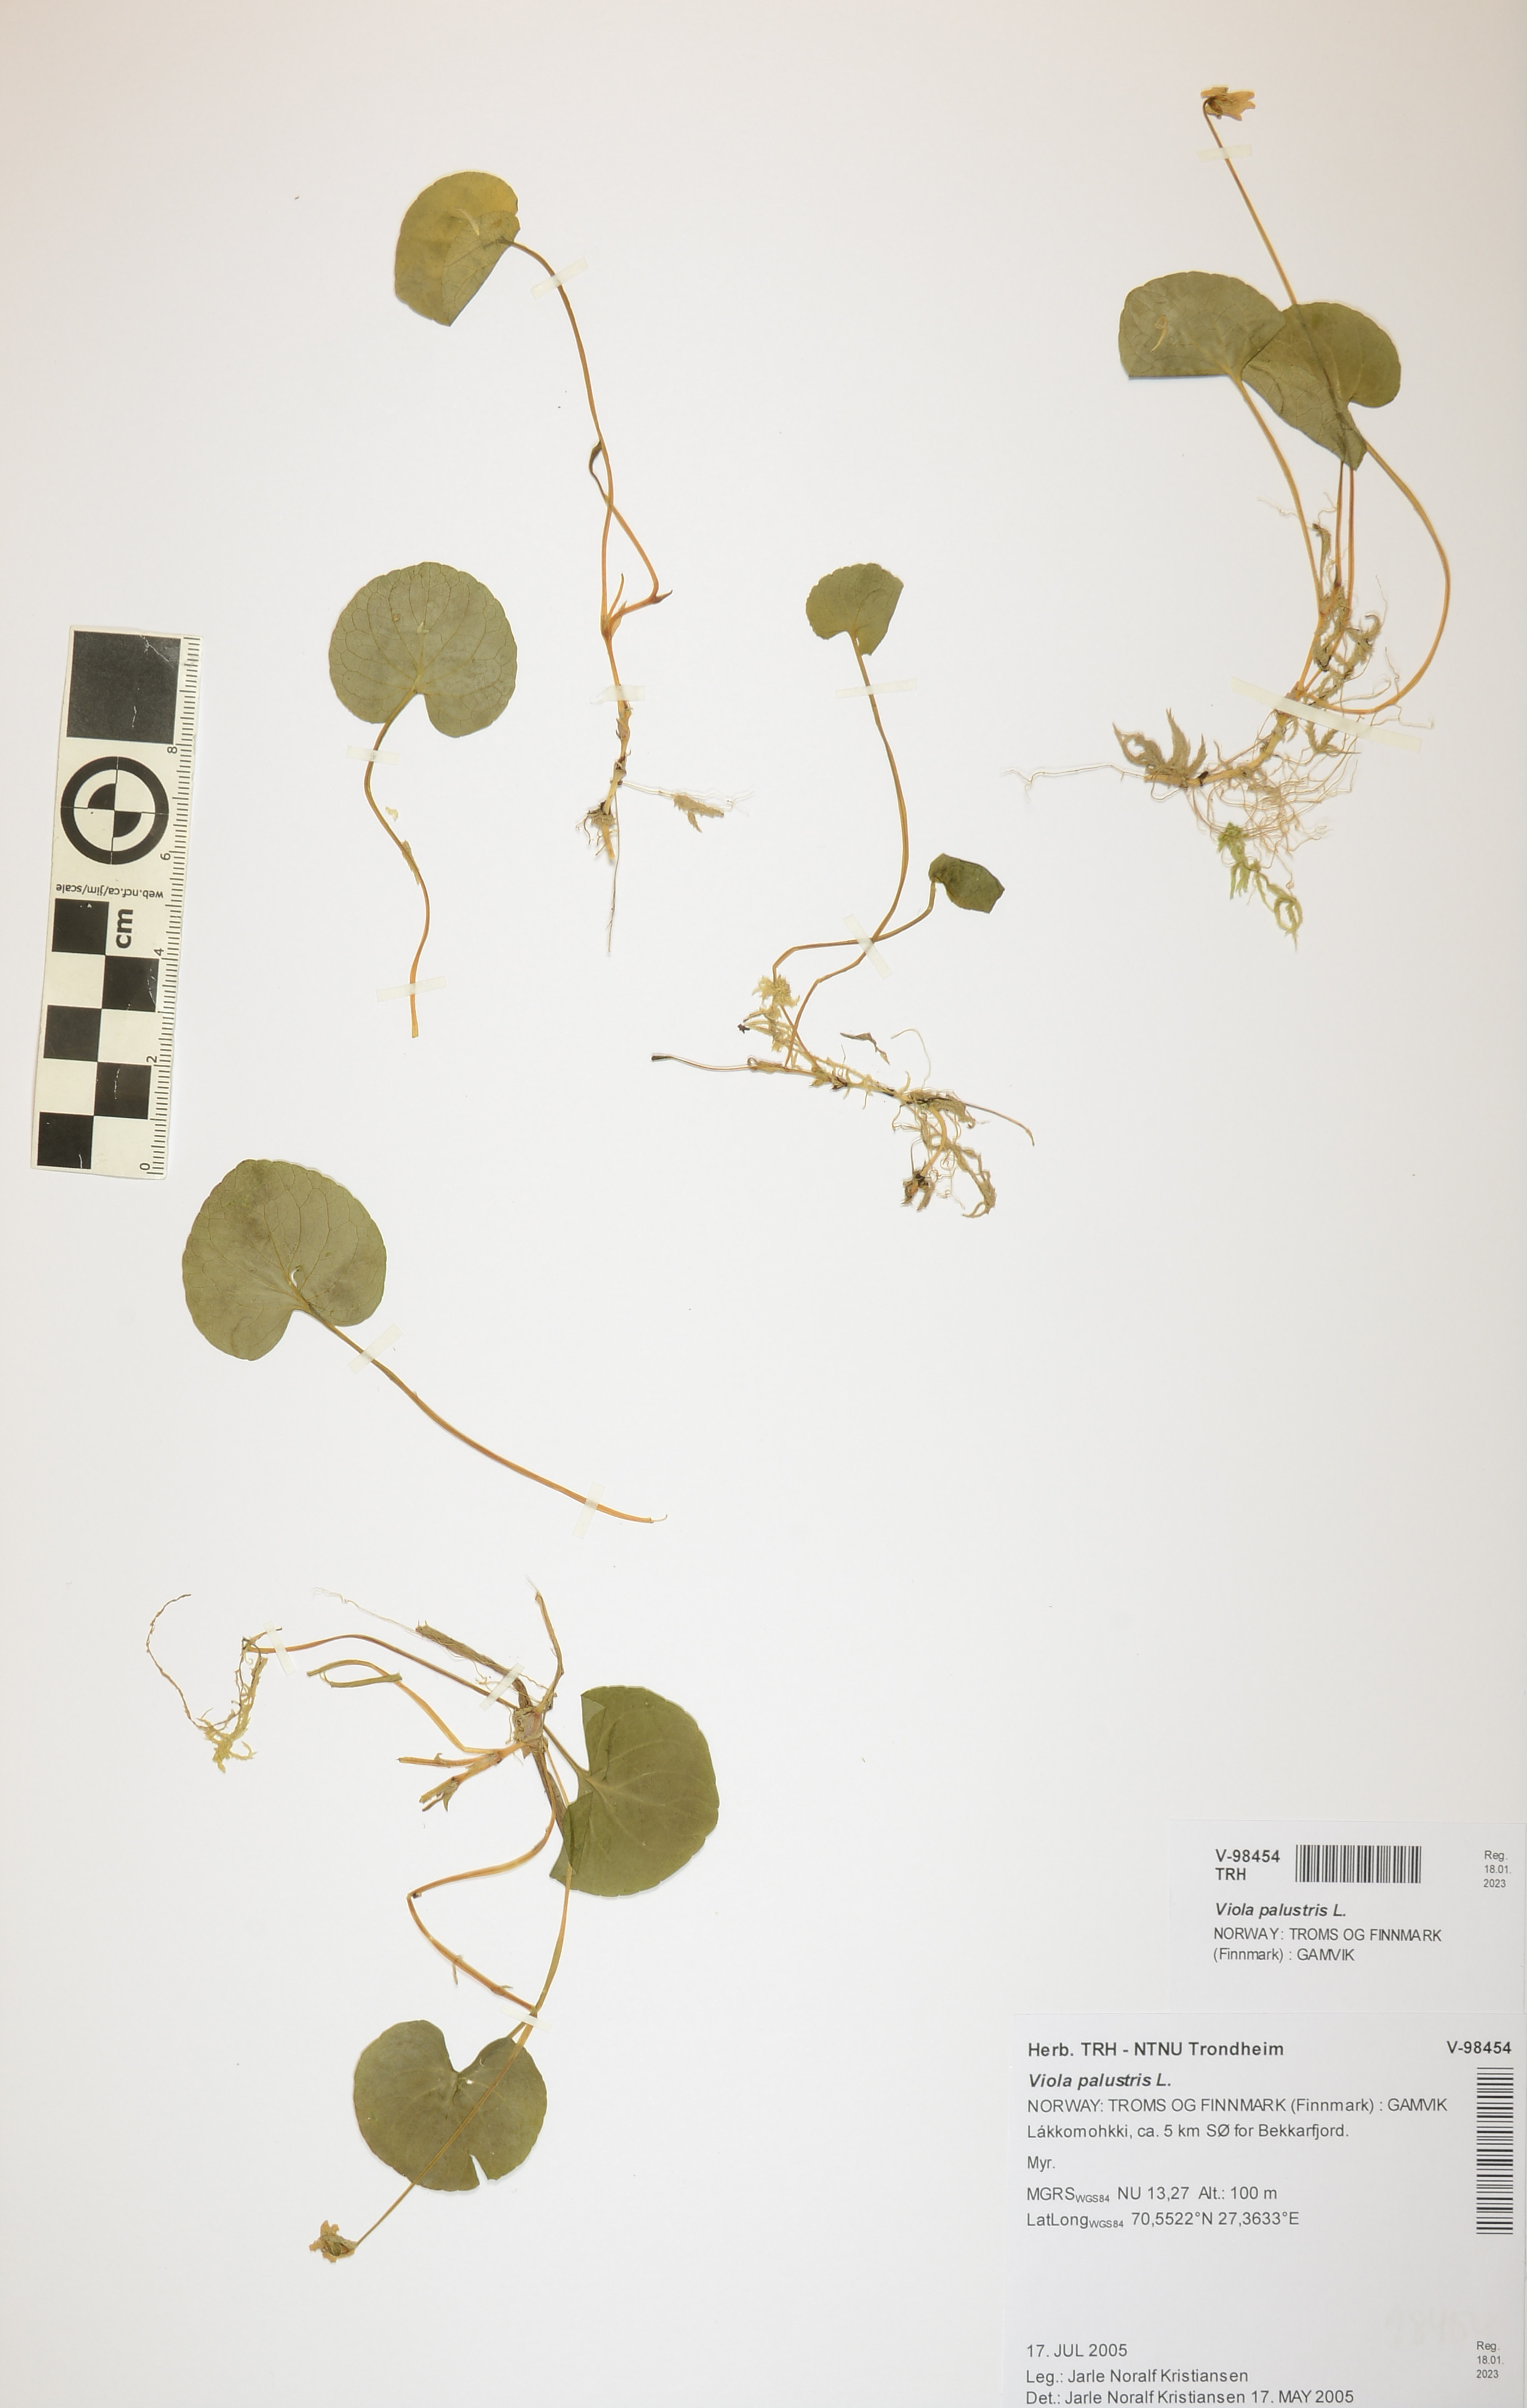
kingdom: Plantae
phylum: Tracheophyta
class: Liliopsida
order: Poales
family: Cyperaceae
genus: Carex
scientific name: Carex rostrata
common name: Bottle sedge
